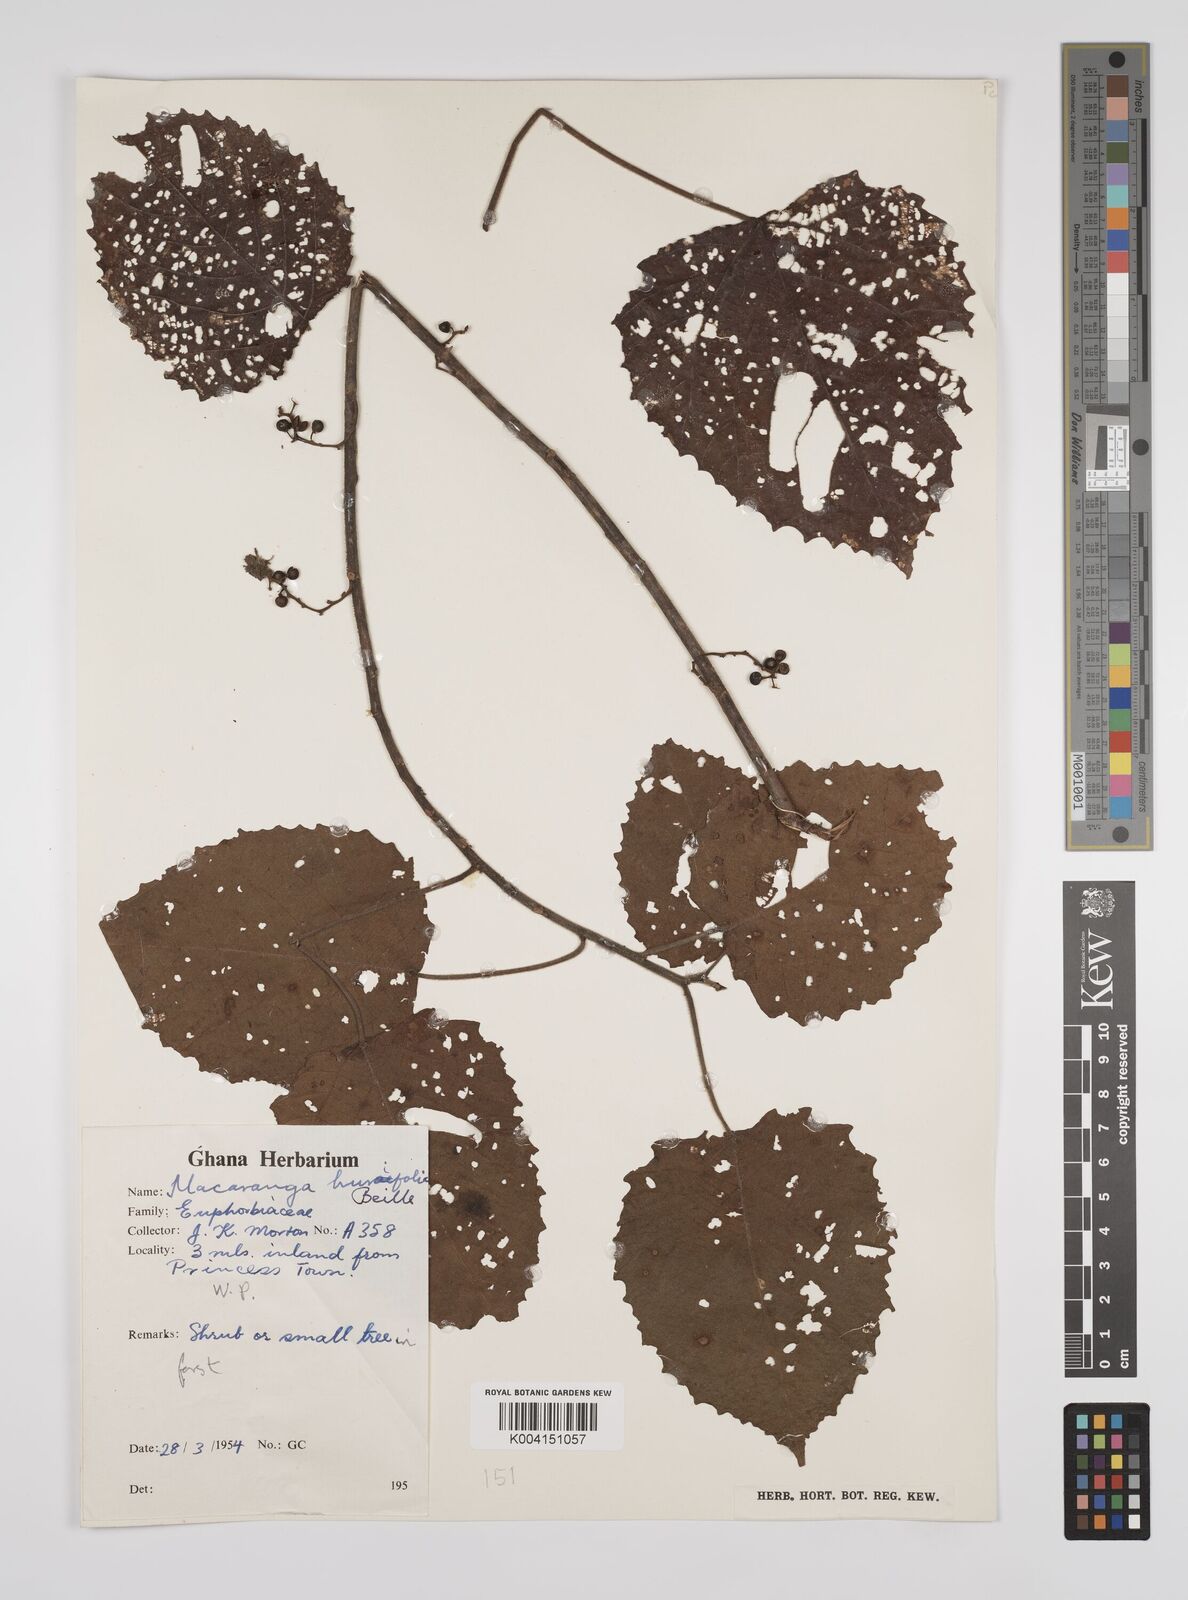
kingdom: Plantae
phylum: Tracheophyta
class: Magnoliopsida
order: Malpighiales
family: Euphorbiaceae
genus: Macaranga
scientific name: Macaranga hurifolia
